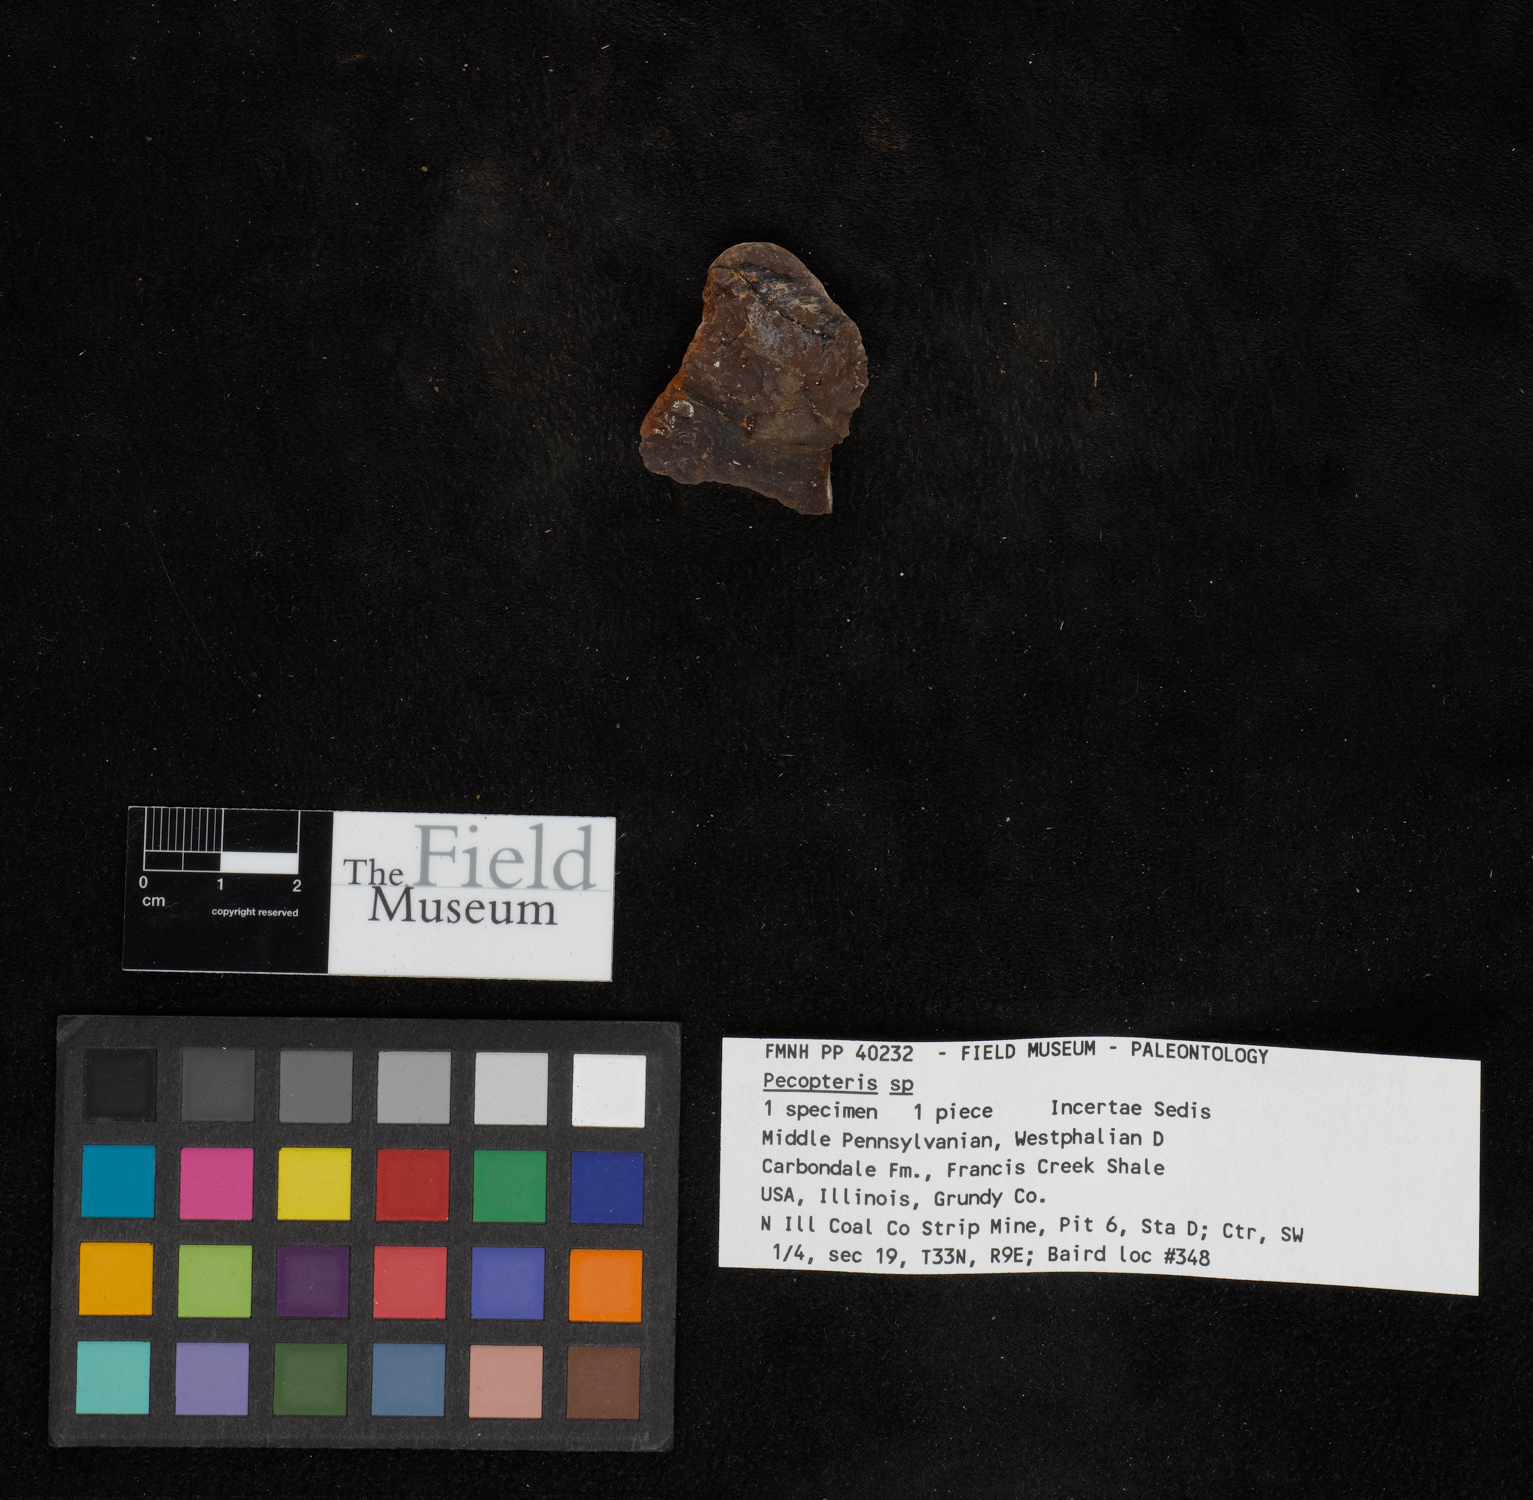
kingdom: Plantae
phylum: Tracheophyta
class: Polypodiopsida
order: Marattiales
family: Asterothecaceae
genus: Pecopteris
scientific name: Pecopteris
